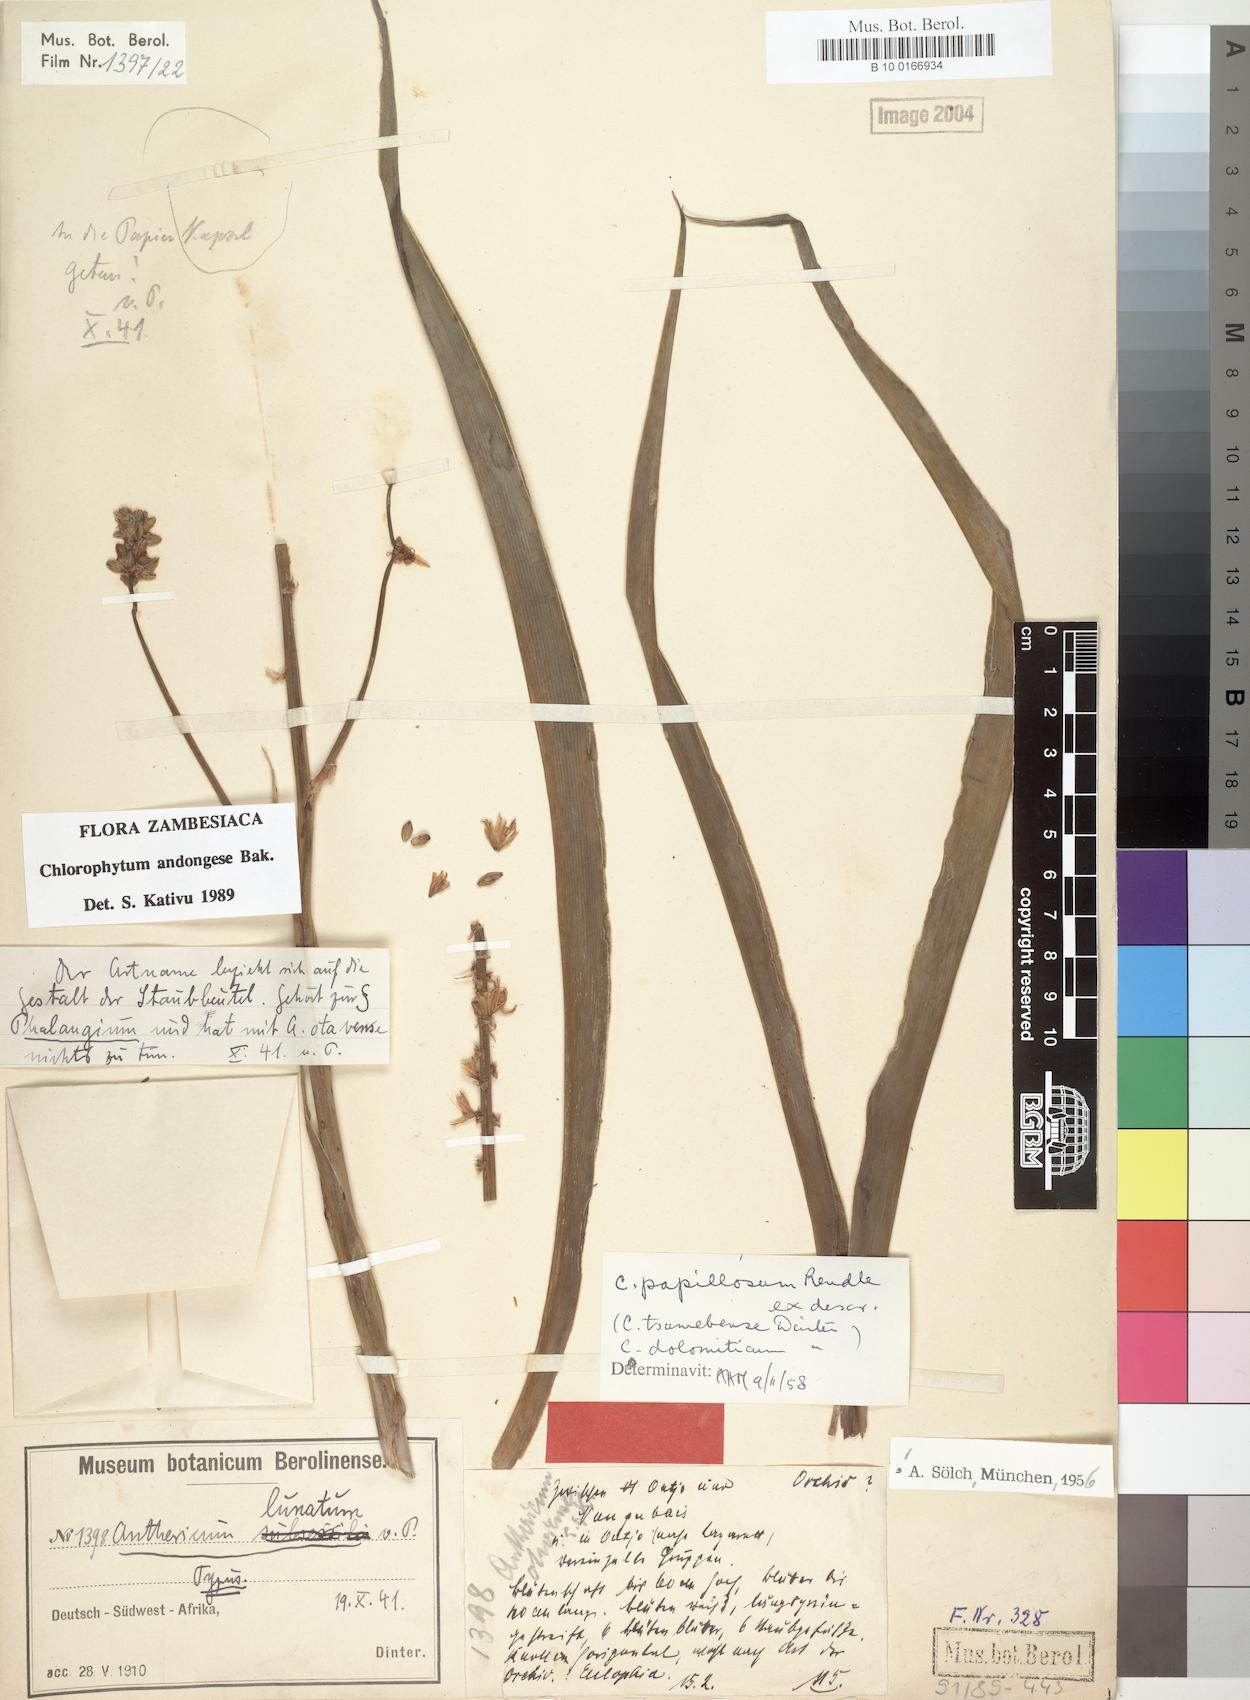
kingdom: Plantae
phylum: Tracheophyta
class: Liliopsida
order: Asparagales
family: Asparagaceae
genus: Chlorophytum
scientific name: Chlorophytum andongense
